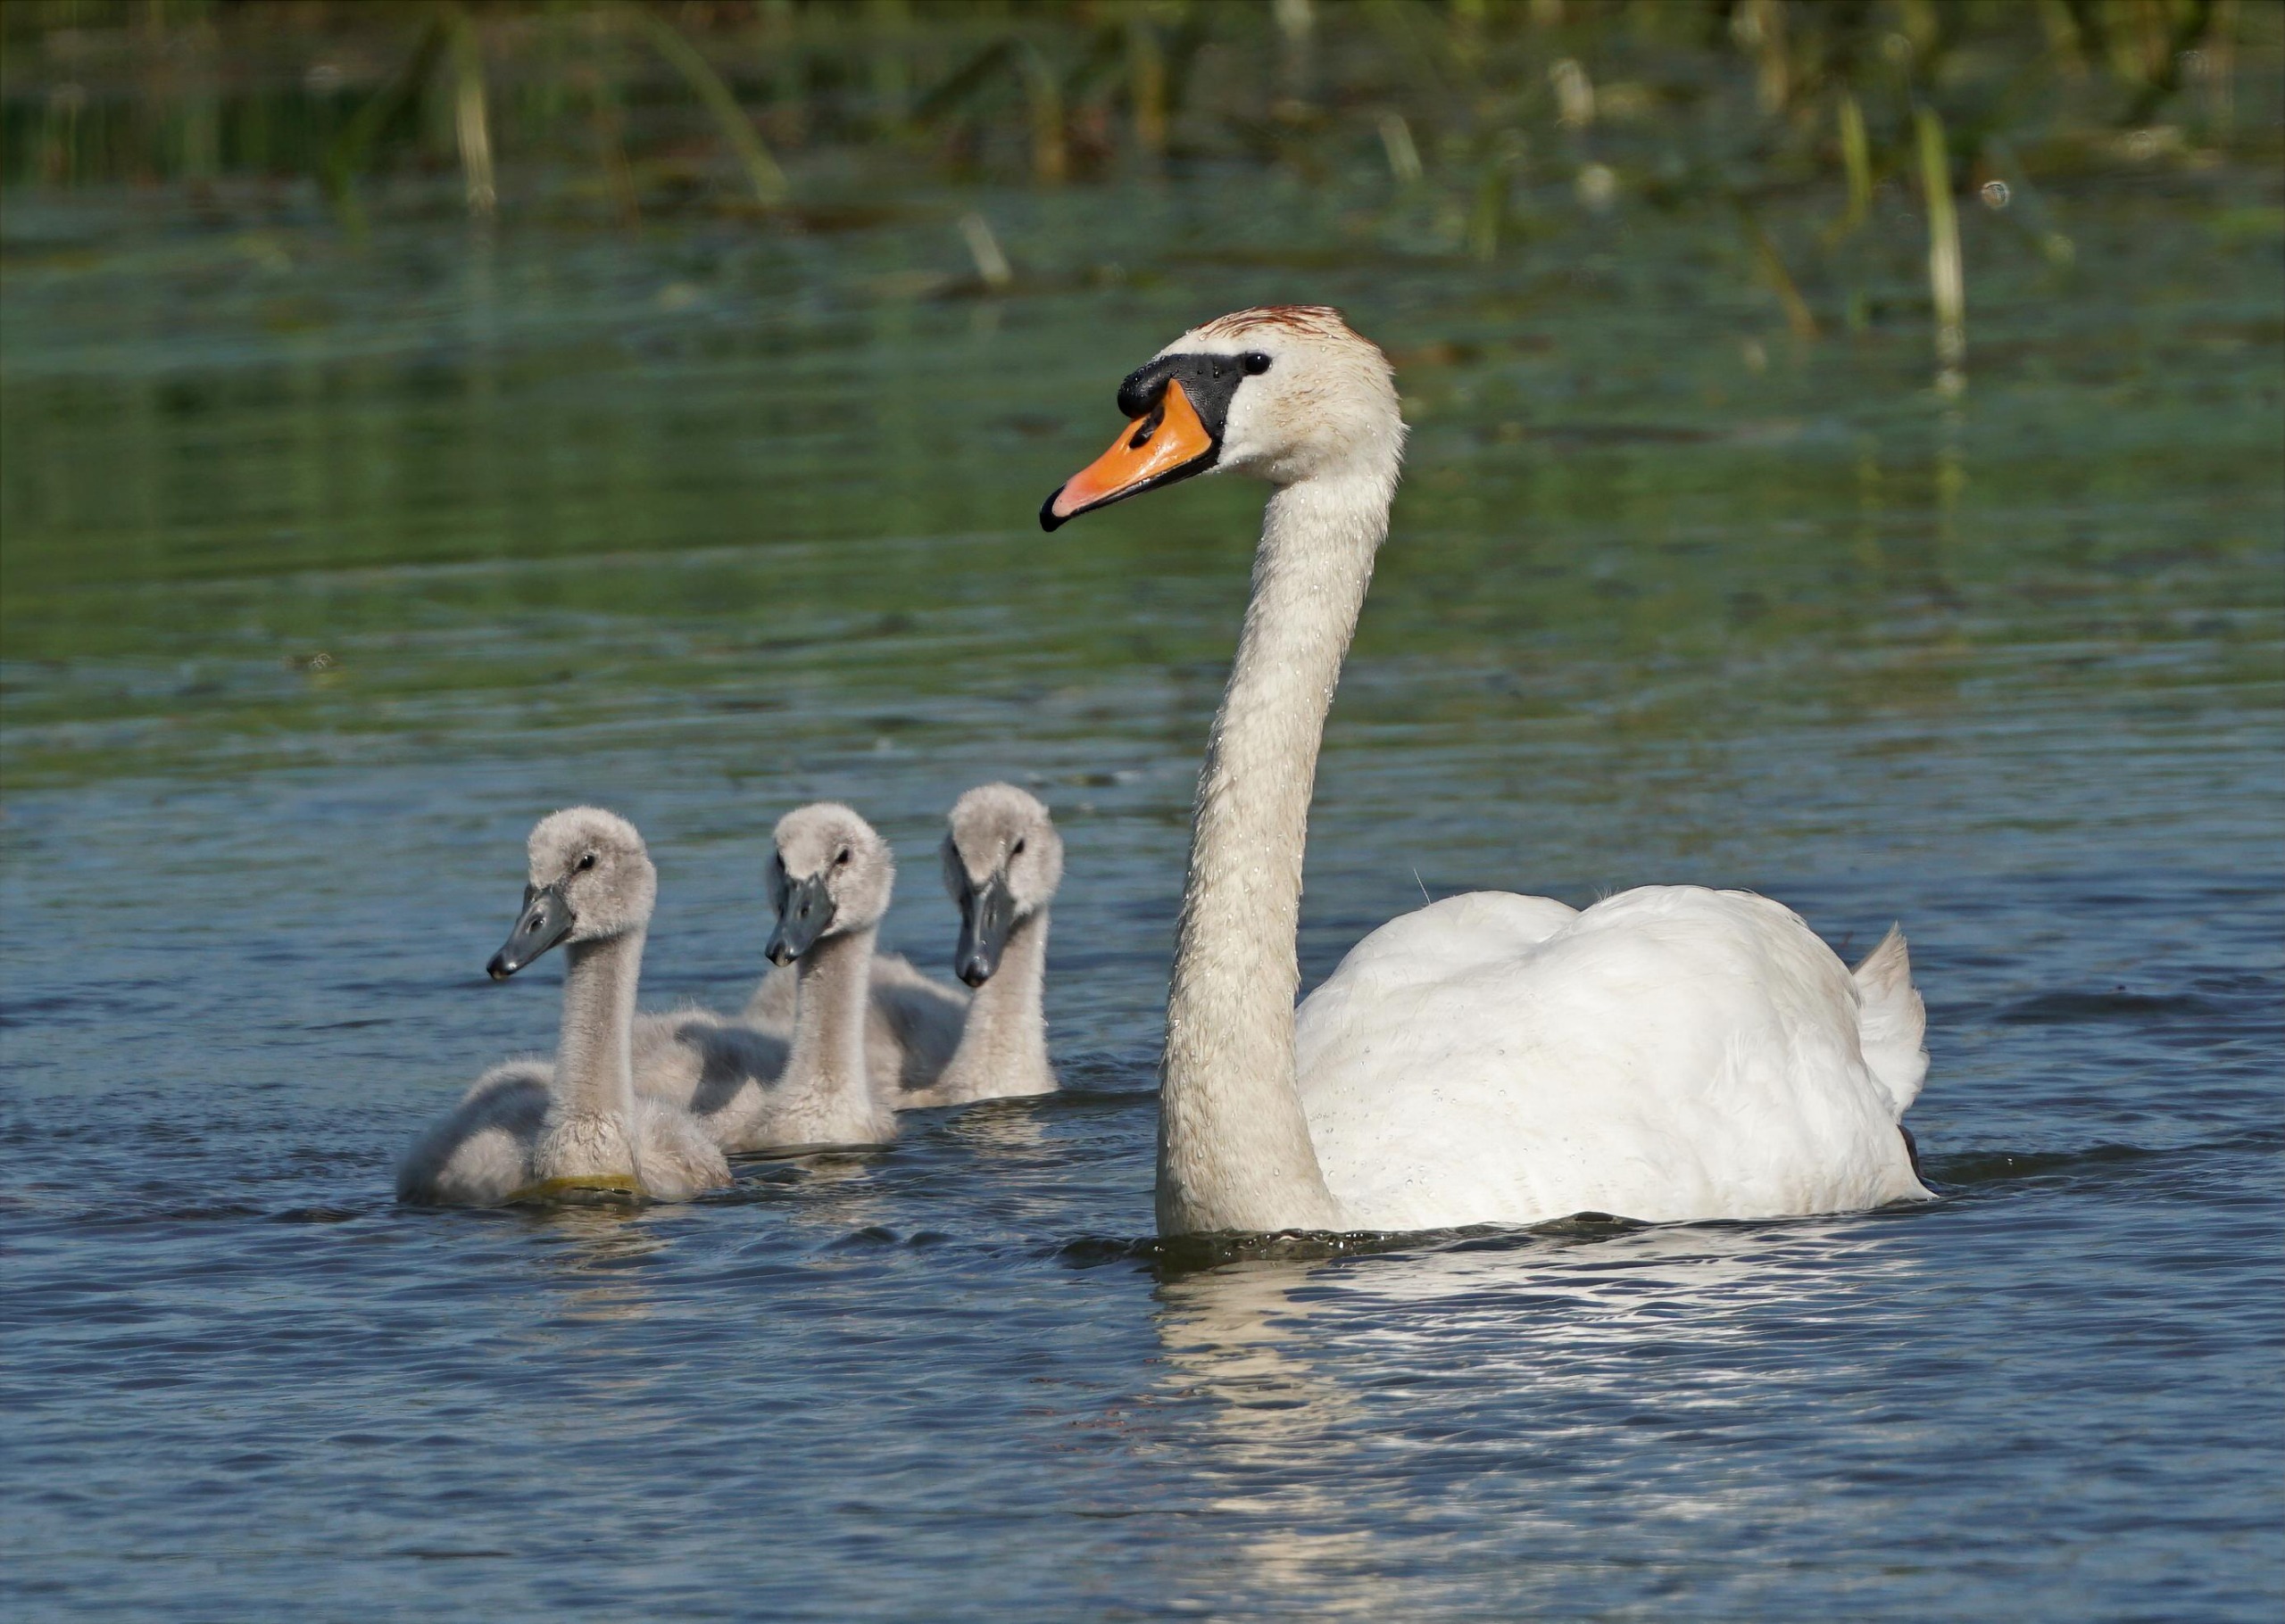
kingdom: Animalia
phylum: Chordata
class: Aves
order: Anseriformes
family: Anatidae
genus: Cygnus
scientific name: Cygnus olor
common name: Knopsvane
